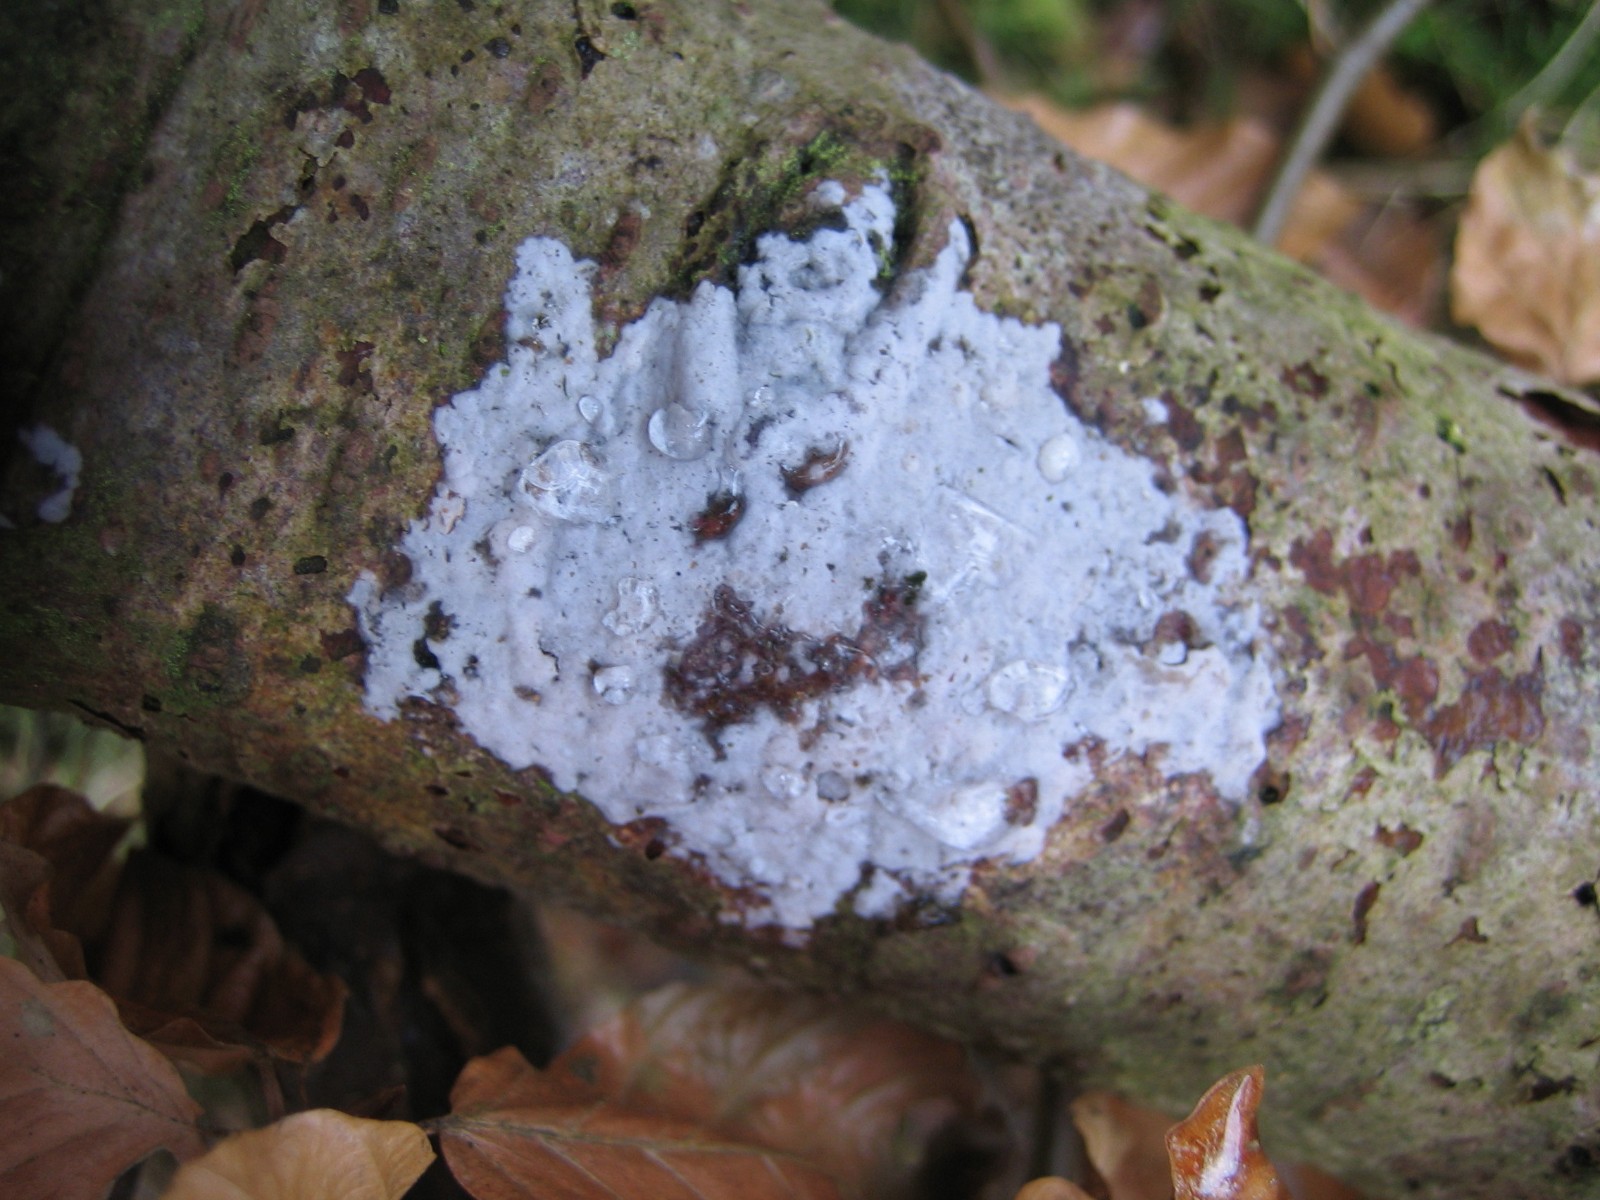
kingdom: Fungi
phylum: Basidiomycota
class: Agaricomycetes
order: Sebacinales
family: Sebacinaceae
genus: Sebacina
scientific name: Sebacina grisea
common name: blågrå bævrehinde
